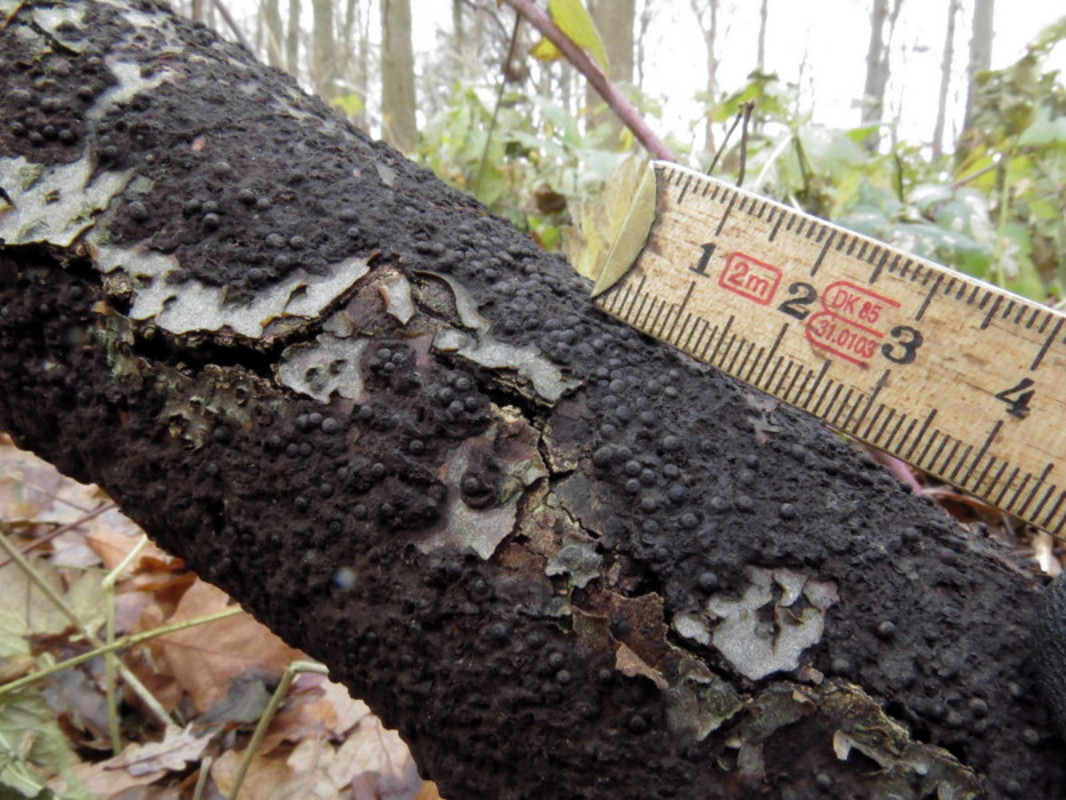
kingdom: Fungi
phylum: Ascomycota
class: Sordariomycetes
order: Xylariales
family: Xylariaceae
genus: Rosellinia
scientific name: Rosellinia corticium
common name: måtte-kulkaviar
